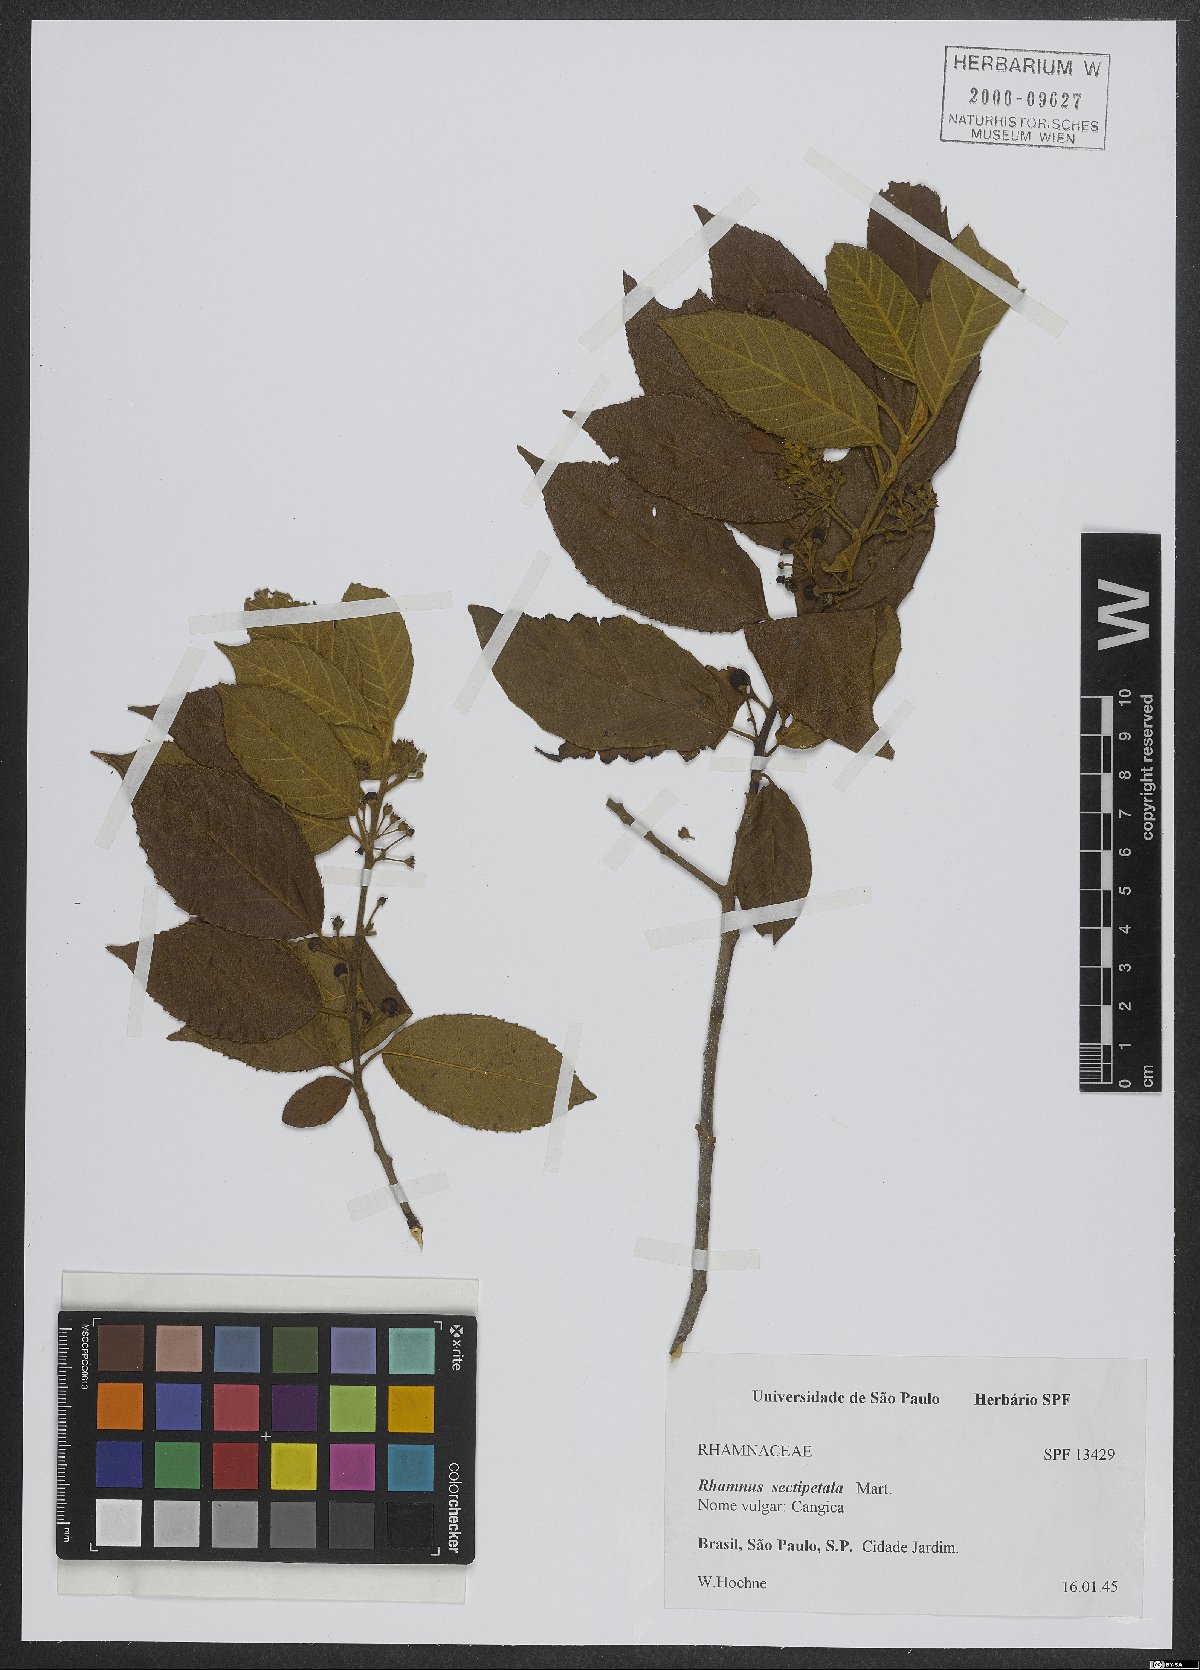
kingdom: Plantae
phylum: Tracheophyta
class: Magnoliopsida
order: Rosales
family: Rhamnaceae
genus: Rhamnus
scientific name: Rhamnus sectipetala
